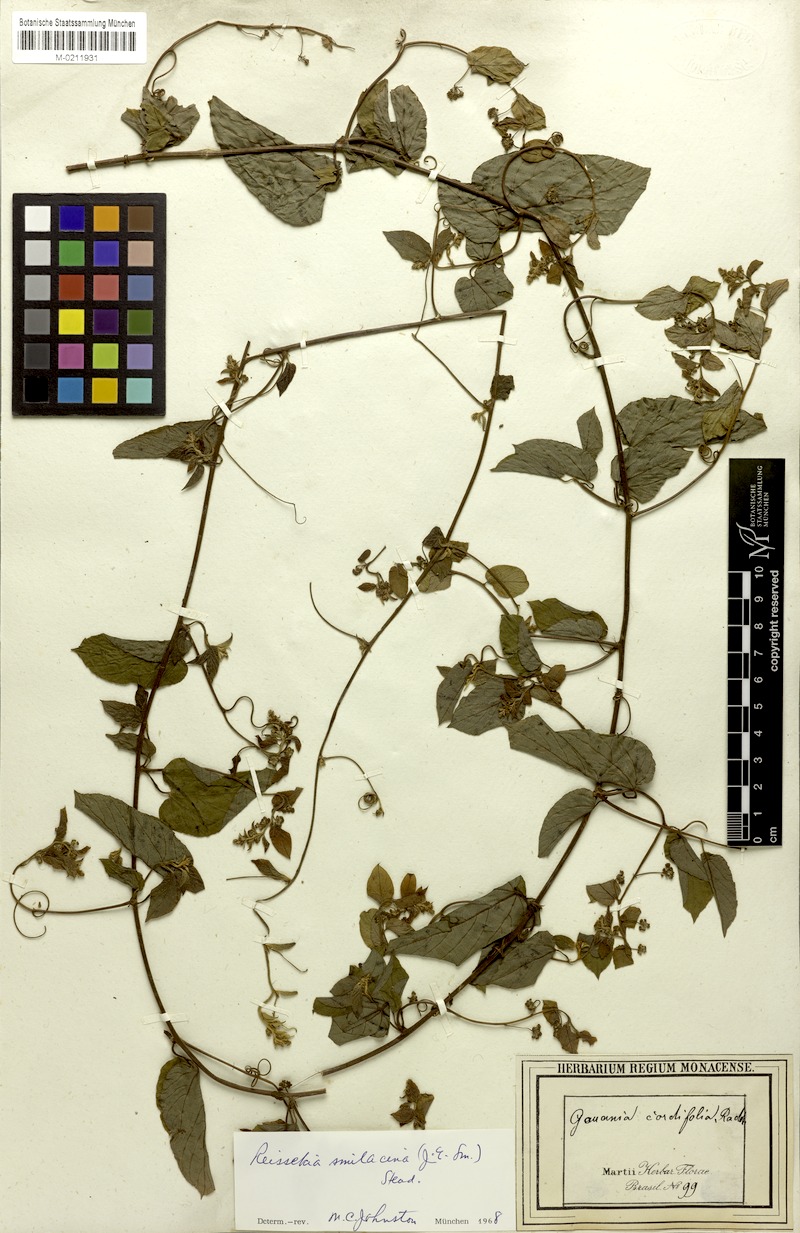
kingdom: Plantae
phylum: Tracheophyta
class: Magnoliopsida
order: Rosales
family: Rhamnaceae
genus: Reissekia
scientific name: Reissekia smilacina
